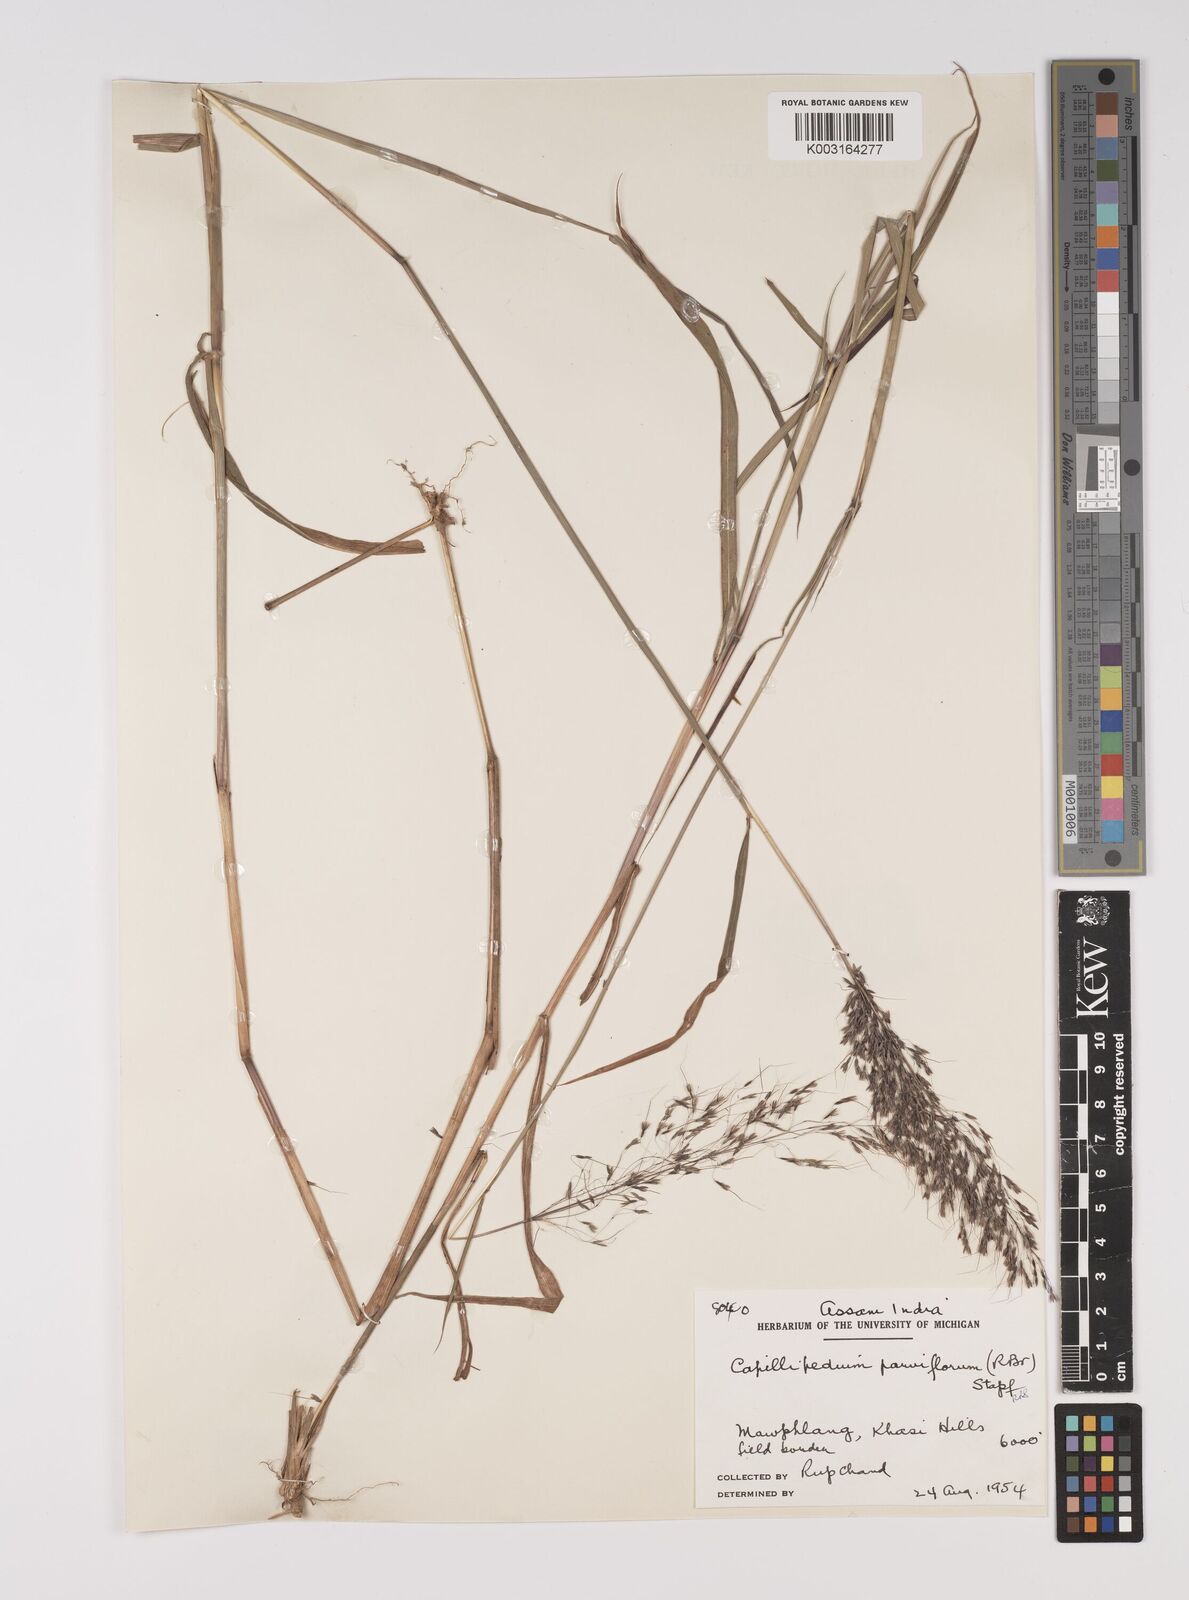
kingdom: Plantae
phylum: Tracheophyta
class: Liliopsida
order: Poales
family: Poaceae
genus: Capillipedium
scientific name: Capillipedium parviflorum
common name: Golden-beard
